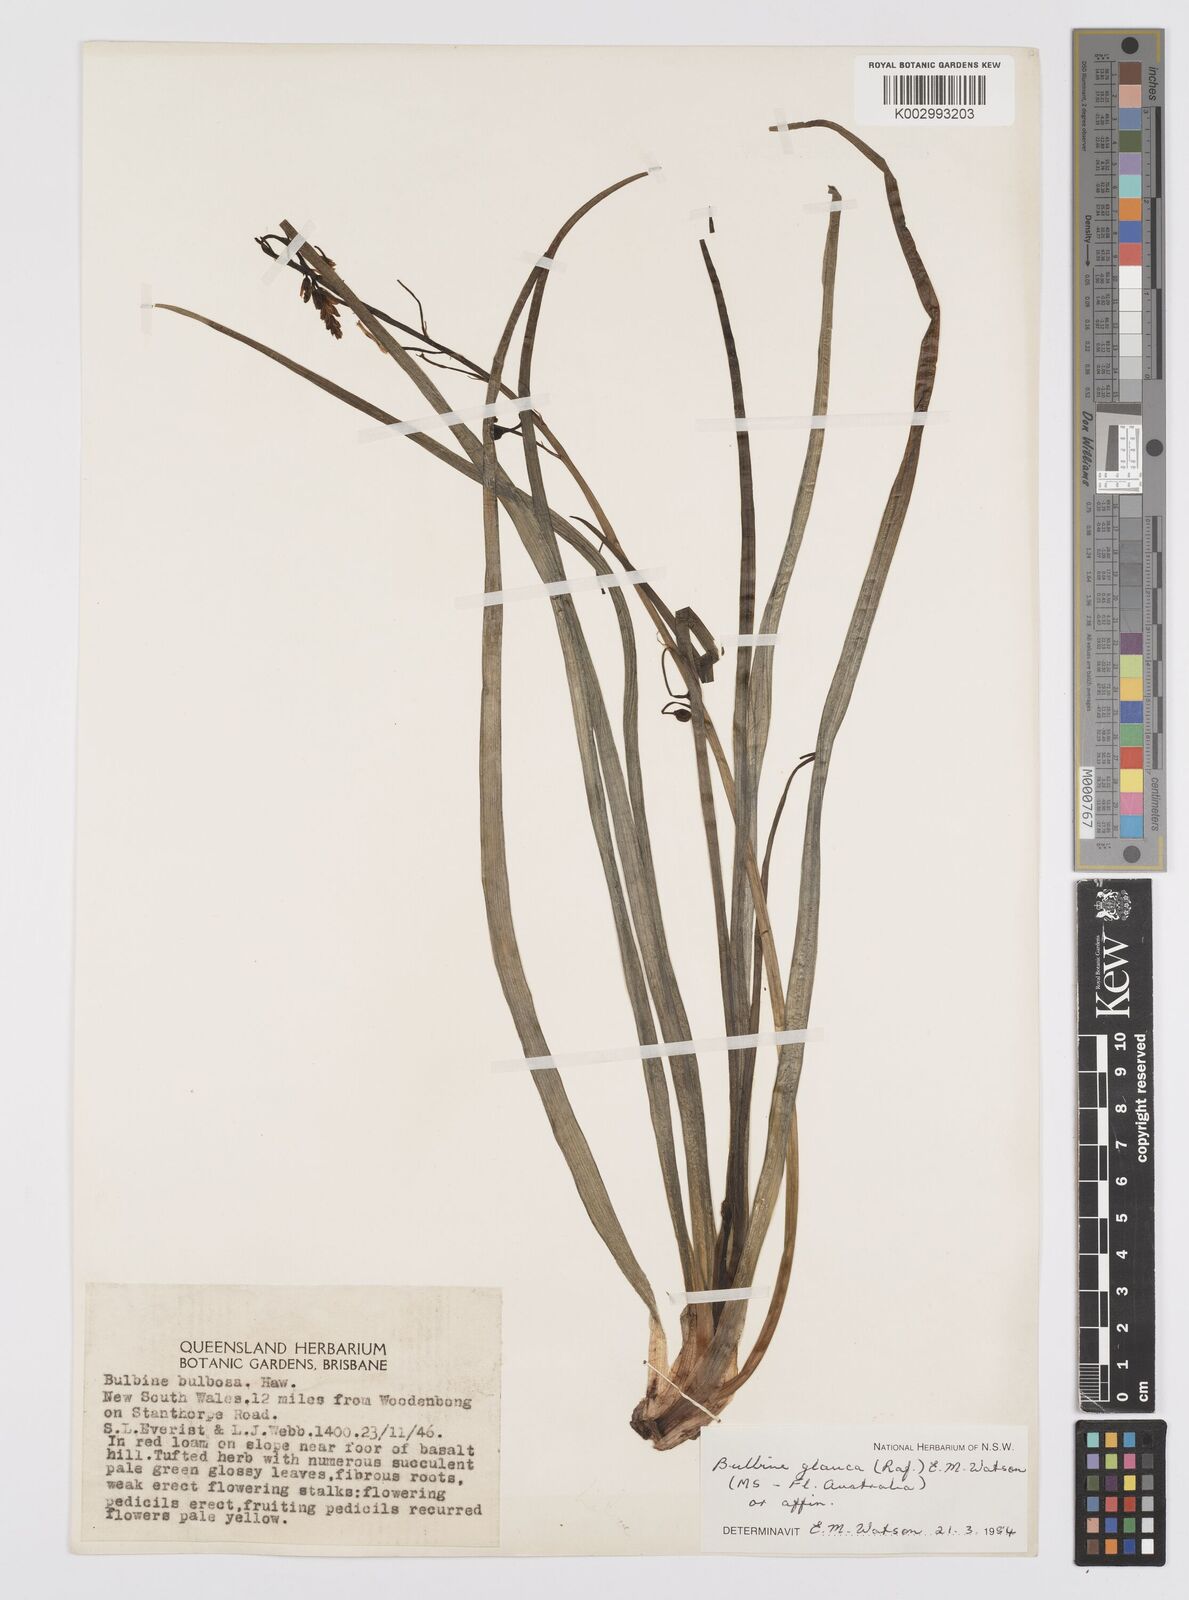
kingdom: Plantae
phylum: Tracheophyta
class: Liliopsida
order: Asparagales
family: Asphodelaceae
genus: Bulbine
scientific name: Bulbine glauca
